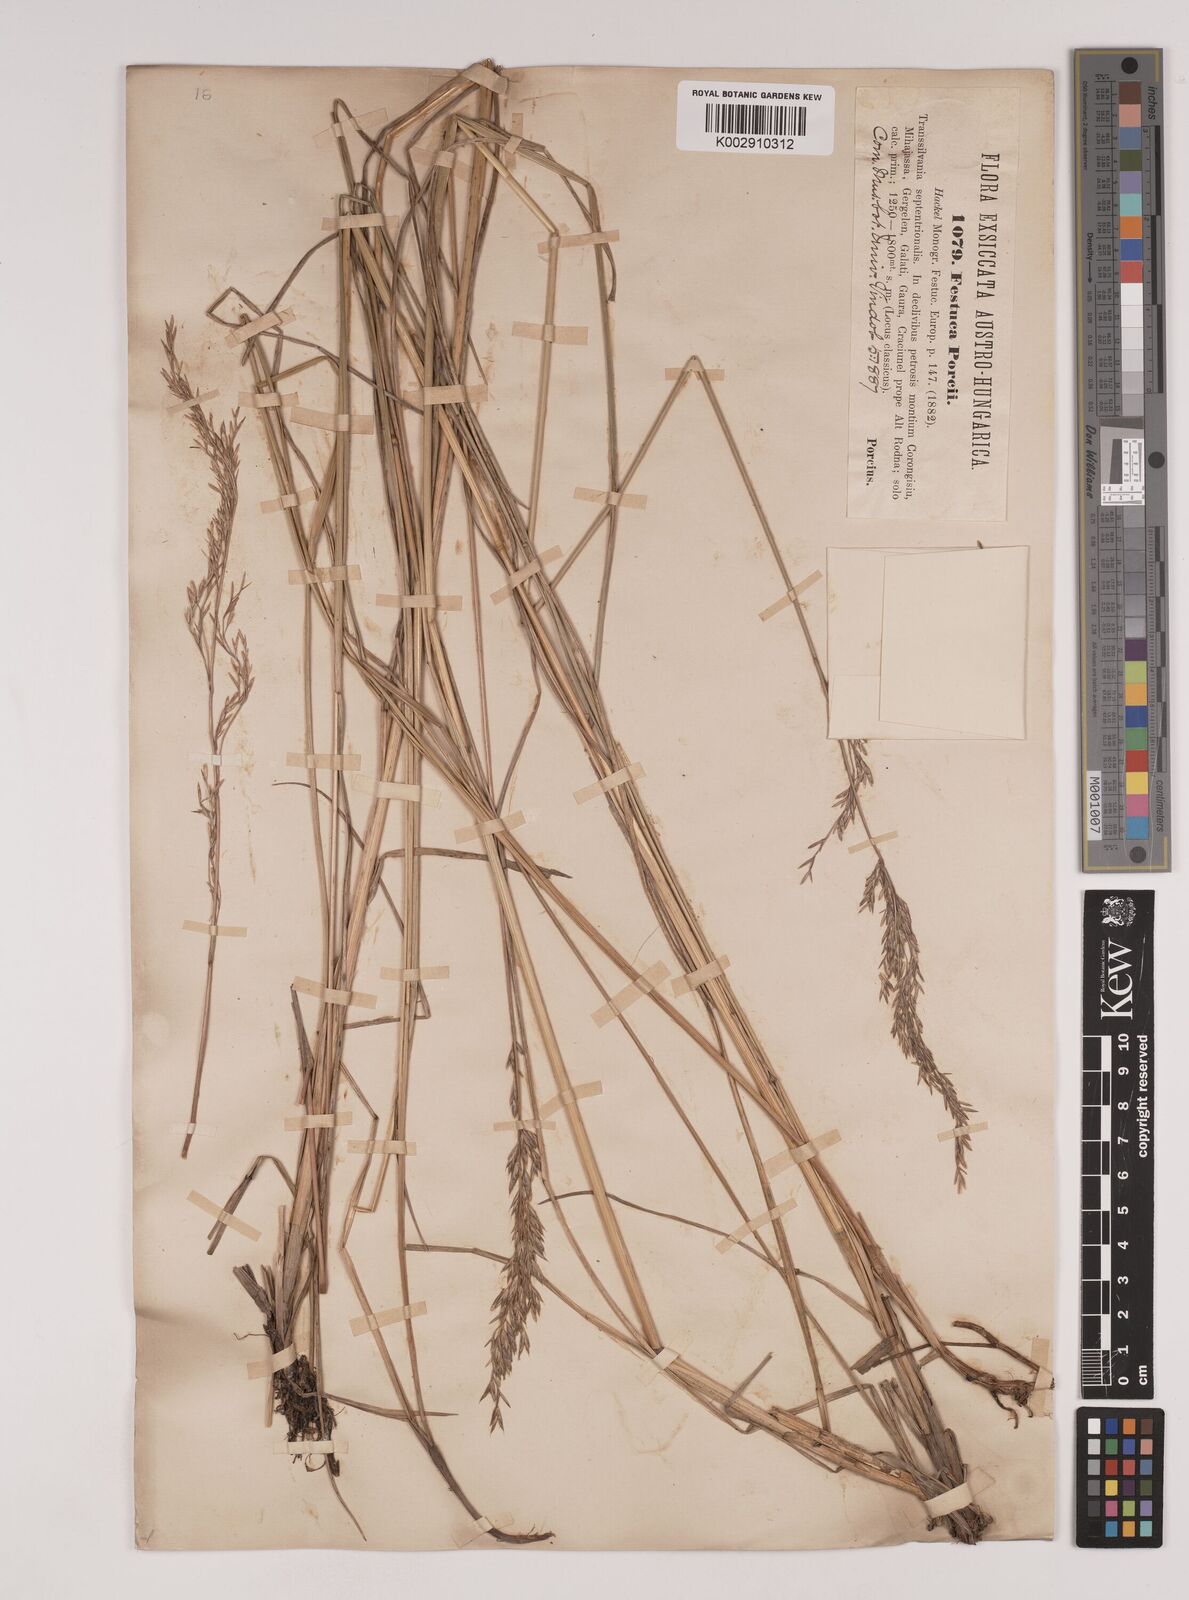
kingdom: Plantae
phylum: Tracheophyta
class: Liliopsida
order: Poales
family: Poaceae
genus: Festuca
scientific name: Festuca porcii
